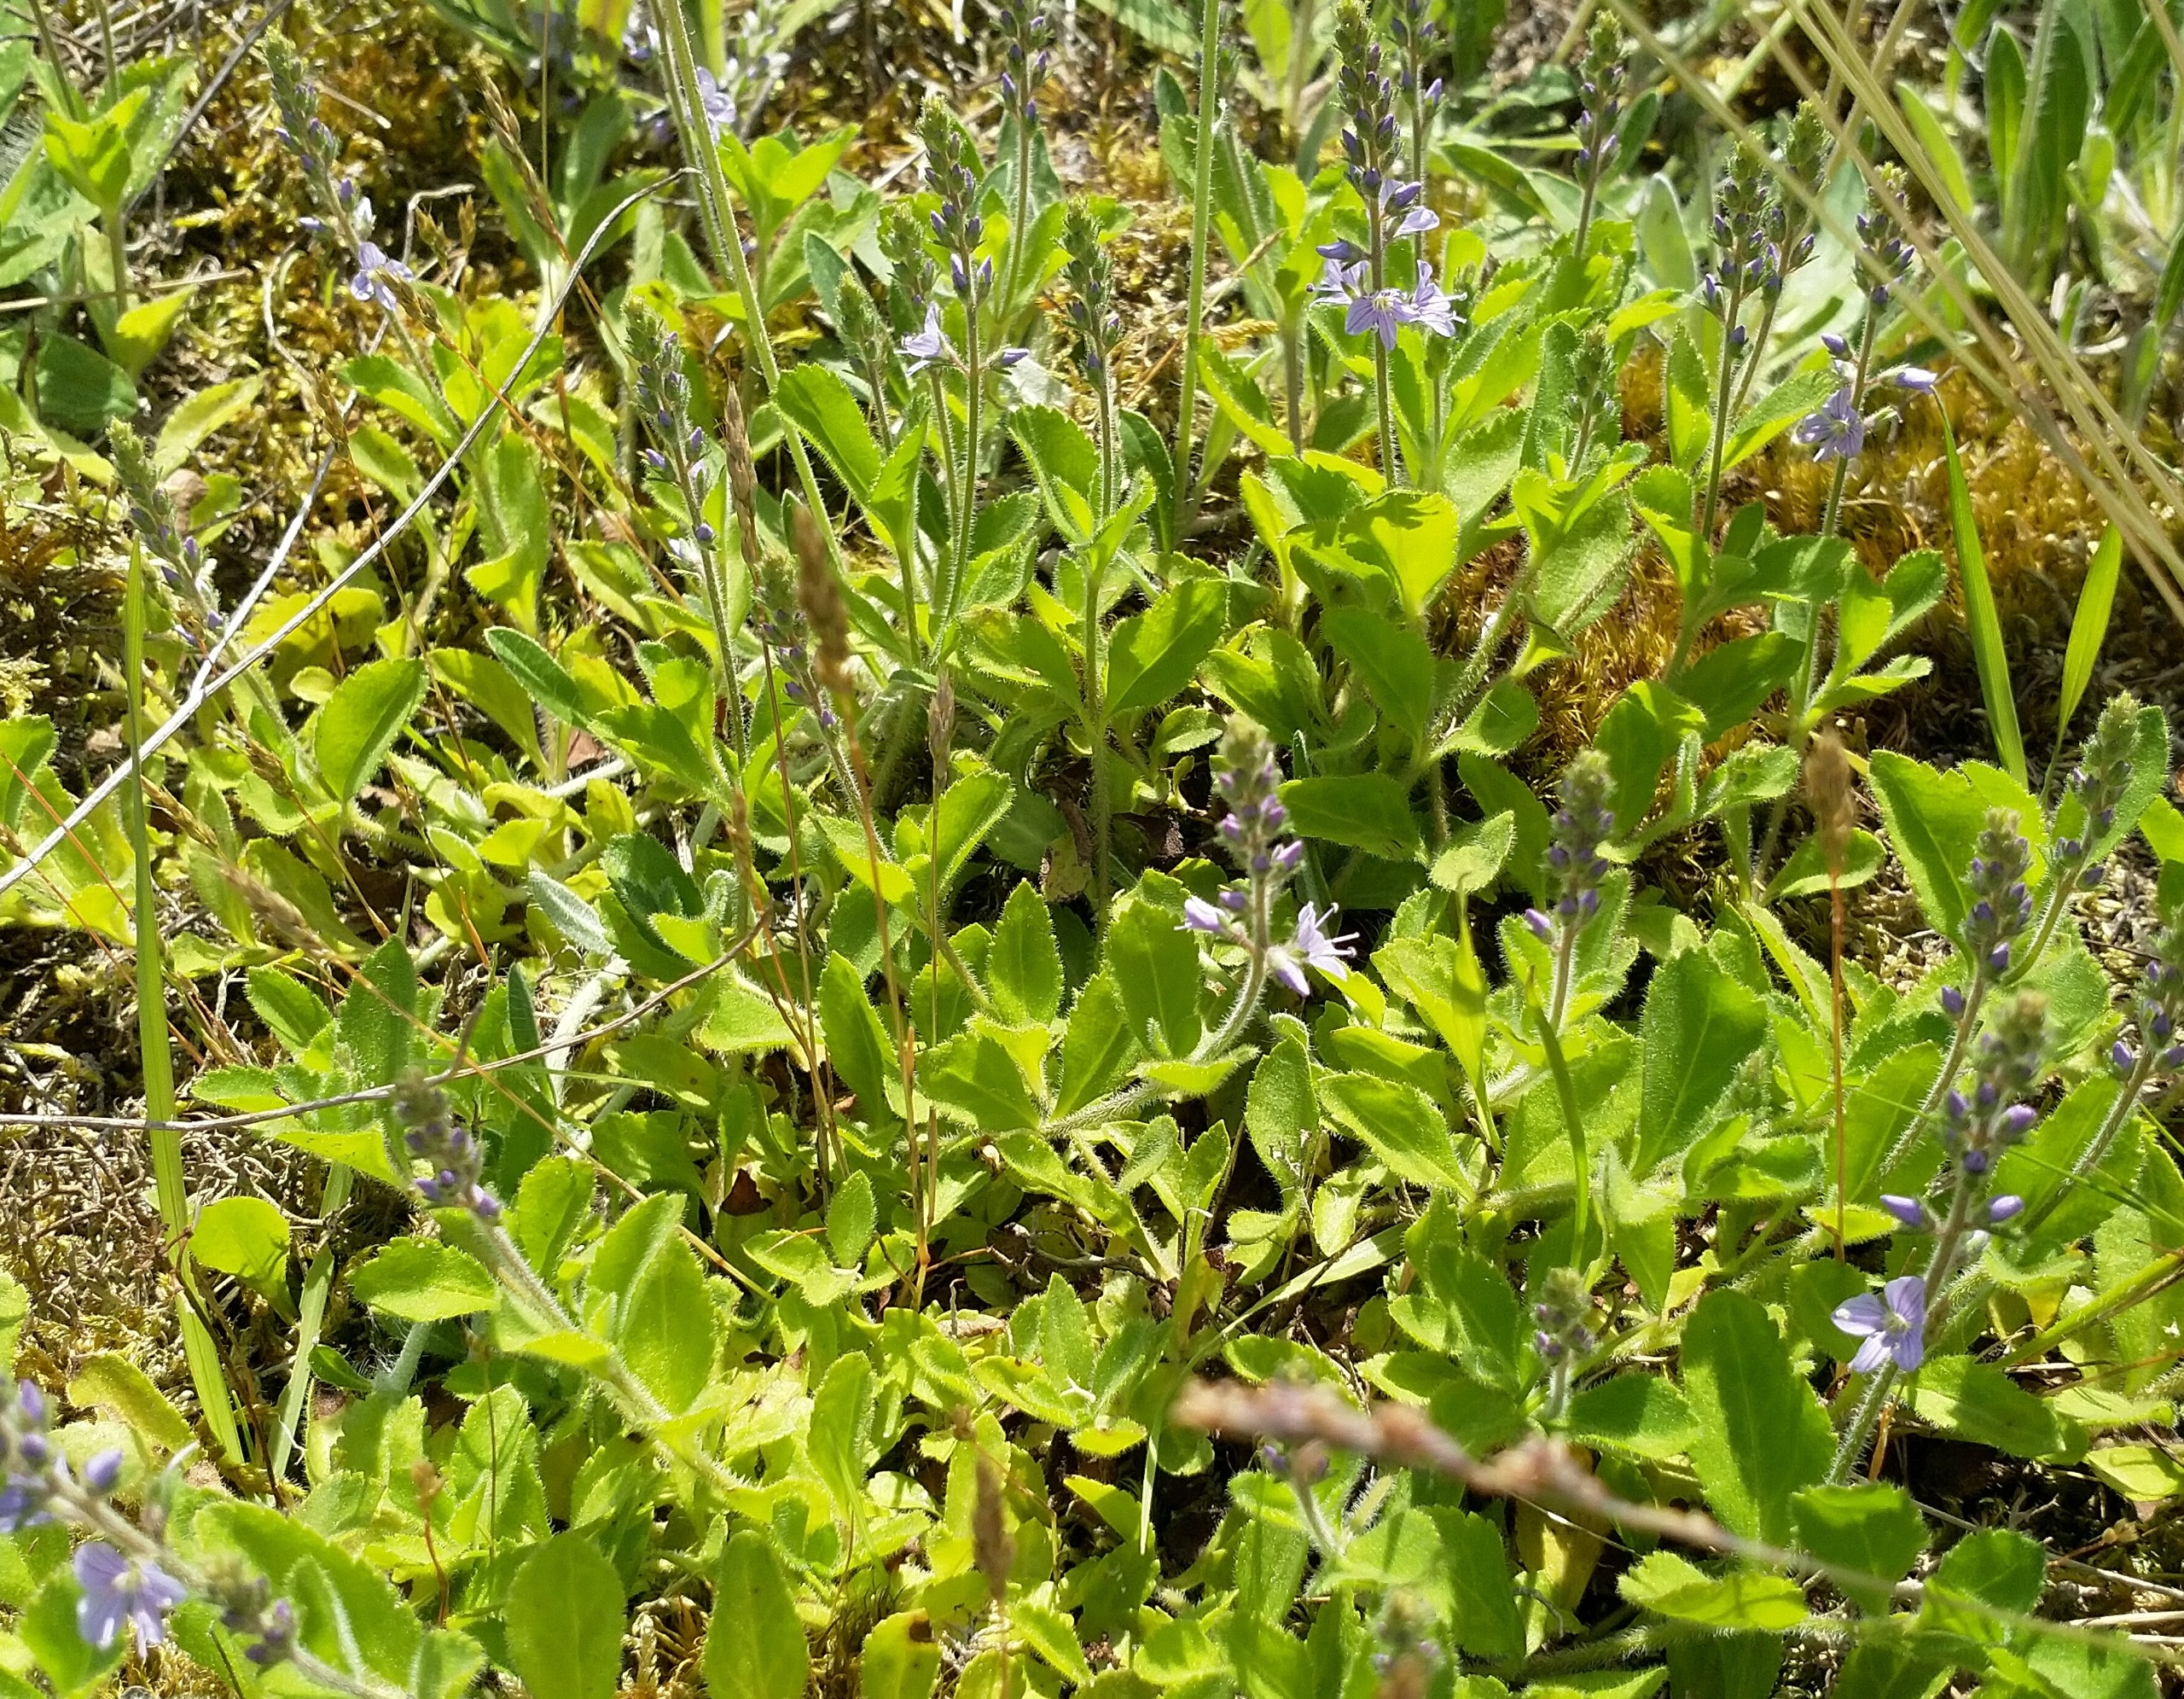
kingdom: Plantae
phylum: Tracheophyta
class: Magnoliopsida
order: Lamiales
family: Plantaginaceae
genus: Veronica
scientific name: Veronica officinalis
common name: Læge-ærenpris
